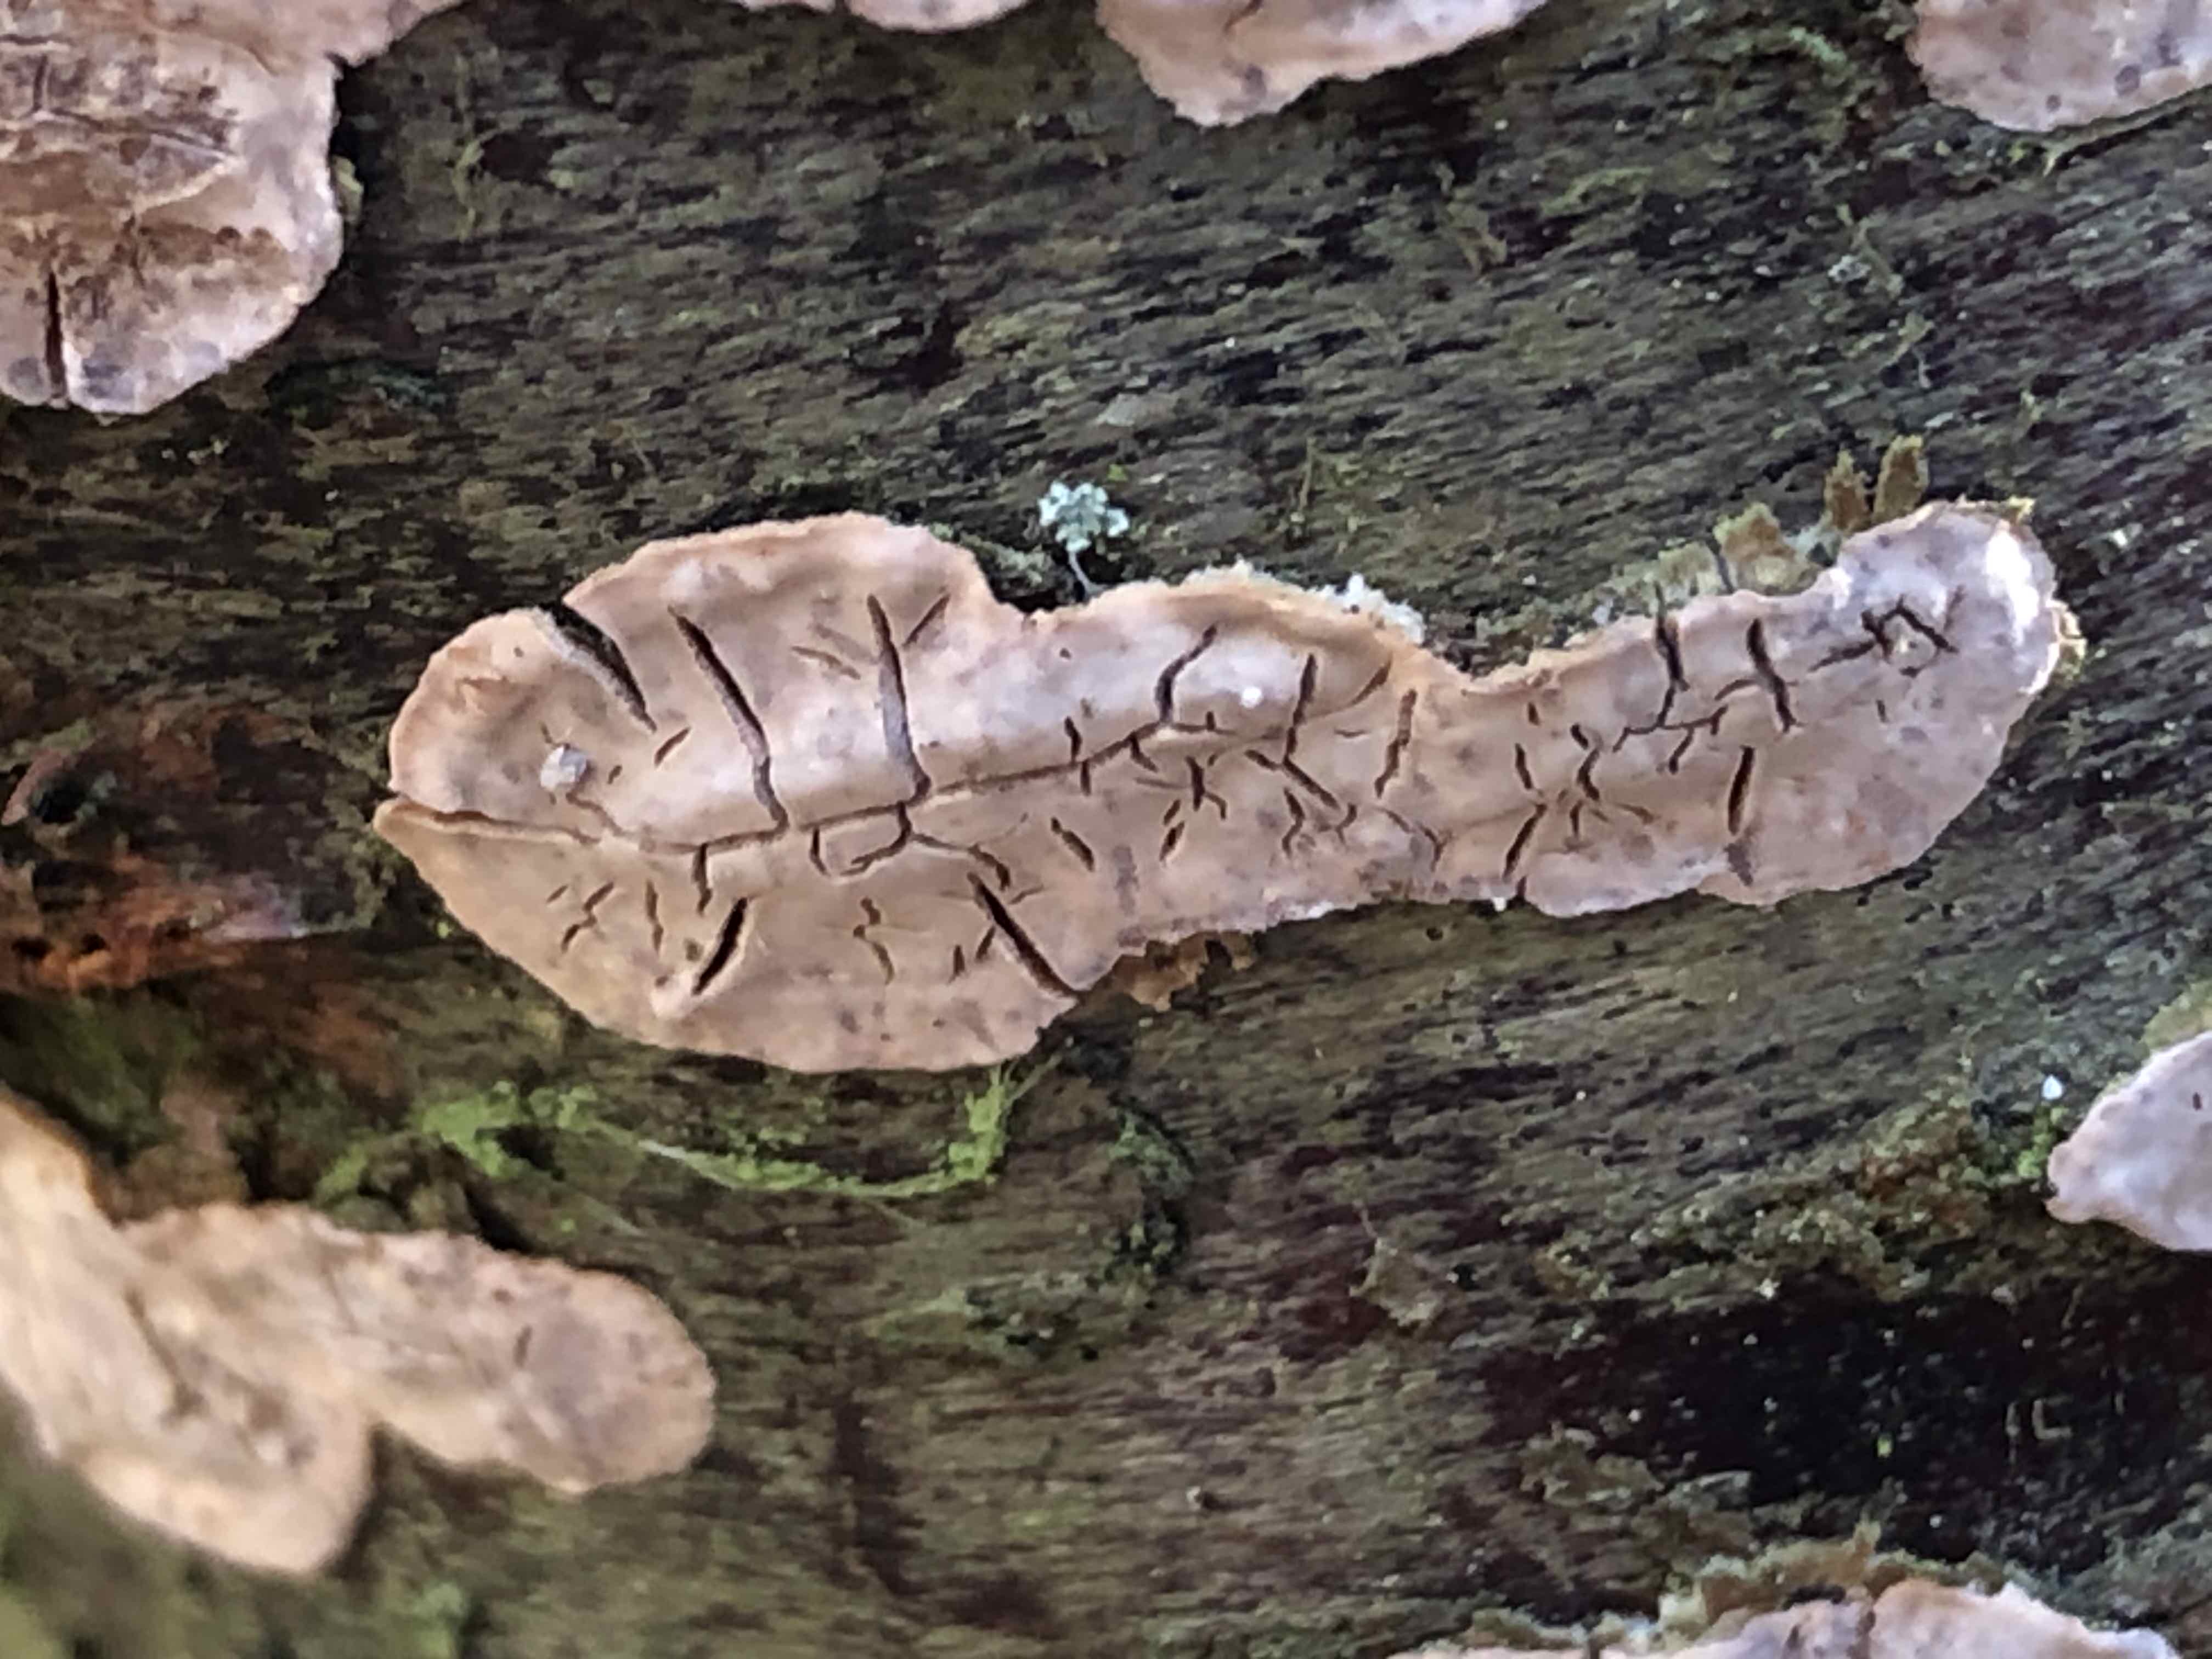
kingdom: Fungi
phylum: Basidiomycota
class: Agaricomycetes
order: Agaricales
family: Physalacriaceae
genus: Cylindrobasidium
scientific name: Cylindrobasidium evolvens
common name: sprækkehinde
